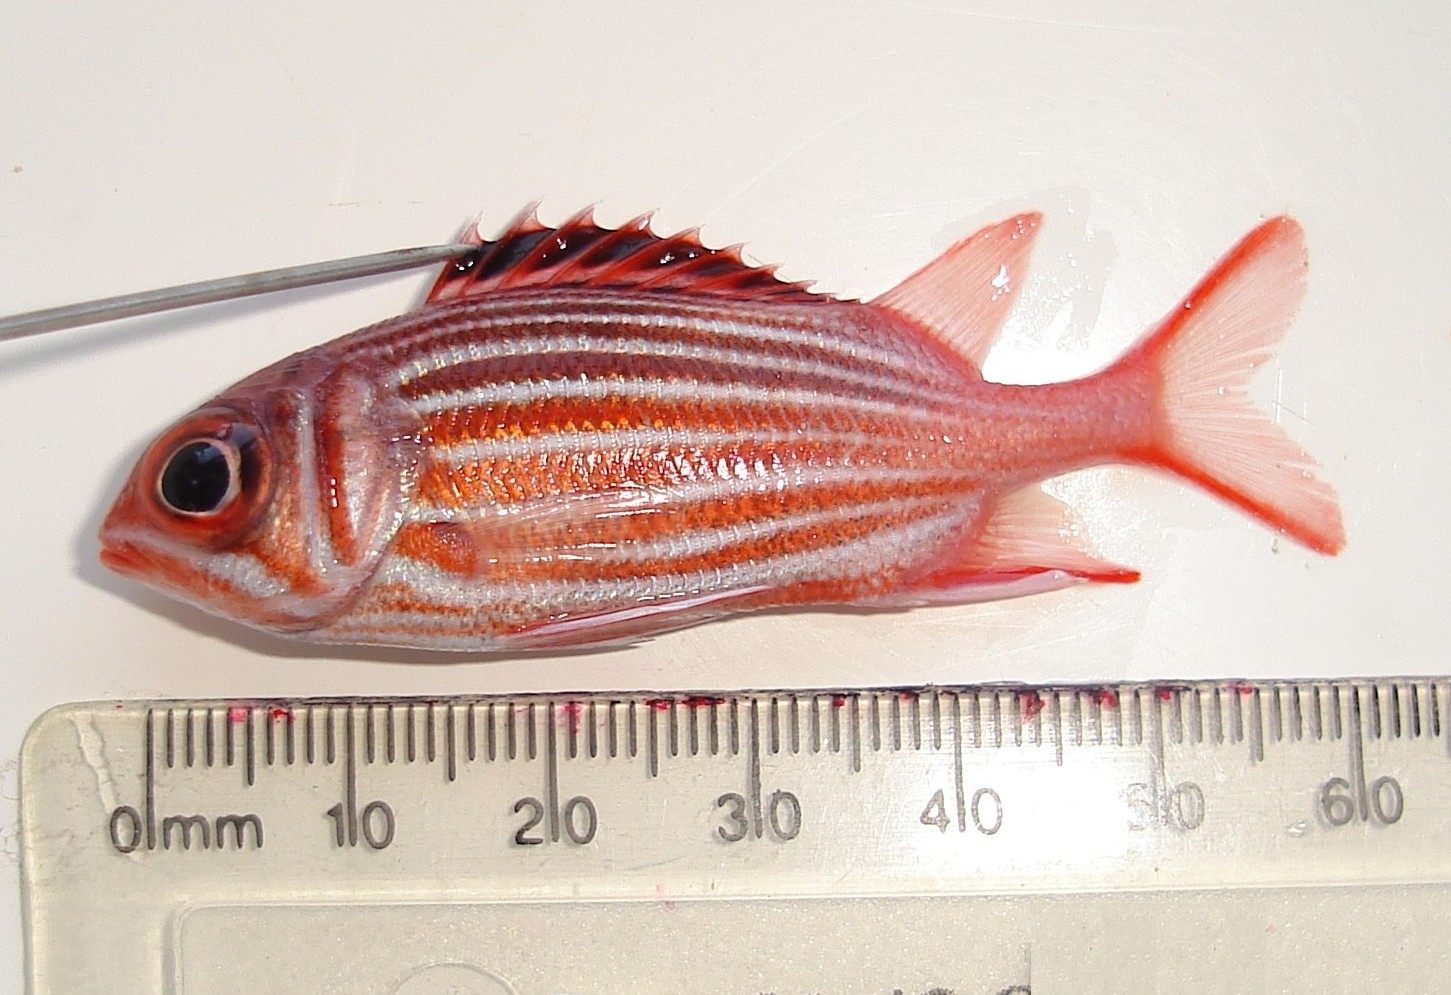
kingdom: Animalia
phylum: Chordata
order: Beryciformes
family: Holocentridae
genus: Sargocentron
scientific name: Sargocentron diadema
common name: Crown squirrelfish
